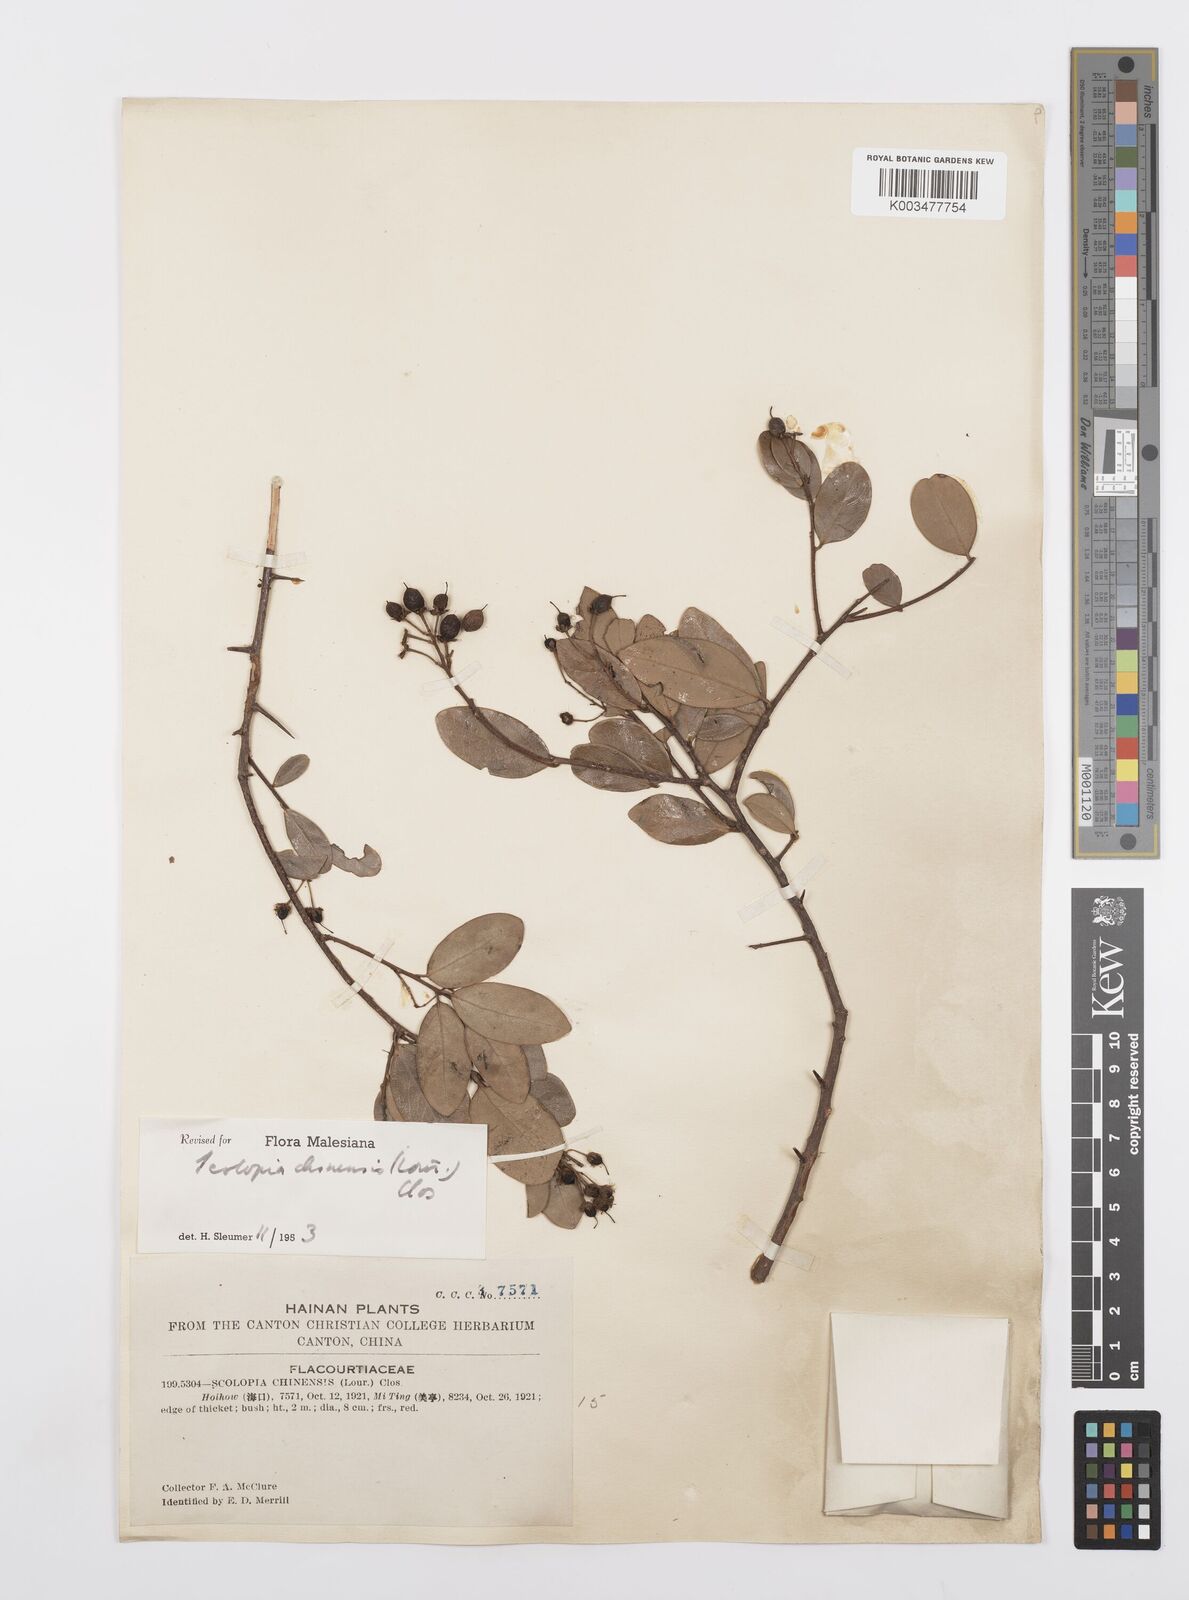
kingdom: Plantae
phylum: Tracheophyta
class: Magnoliopsida
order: Malpighiales
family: Salicaceae
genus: Scolopia
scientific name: Scolopia chinensis
